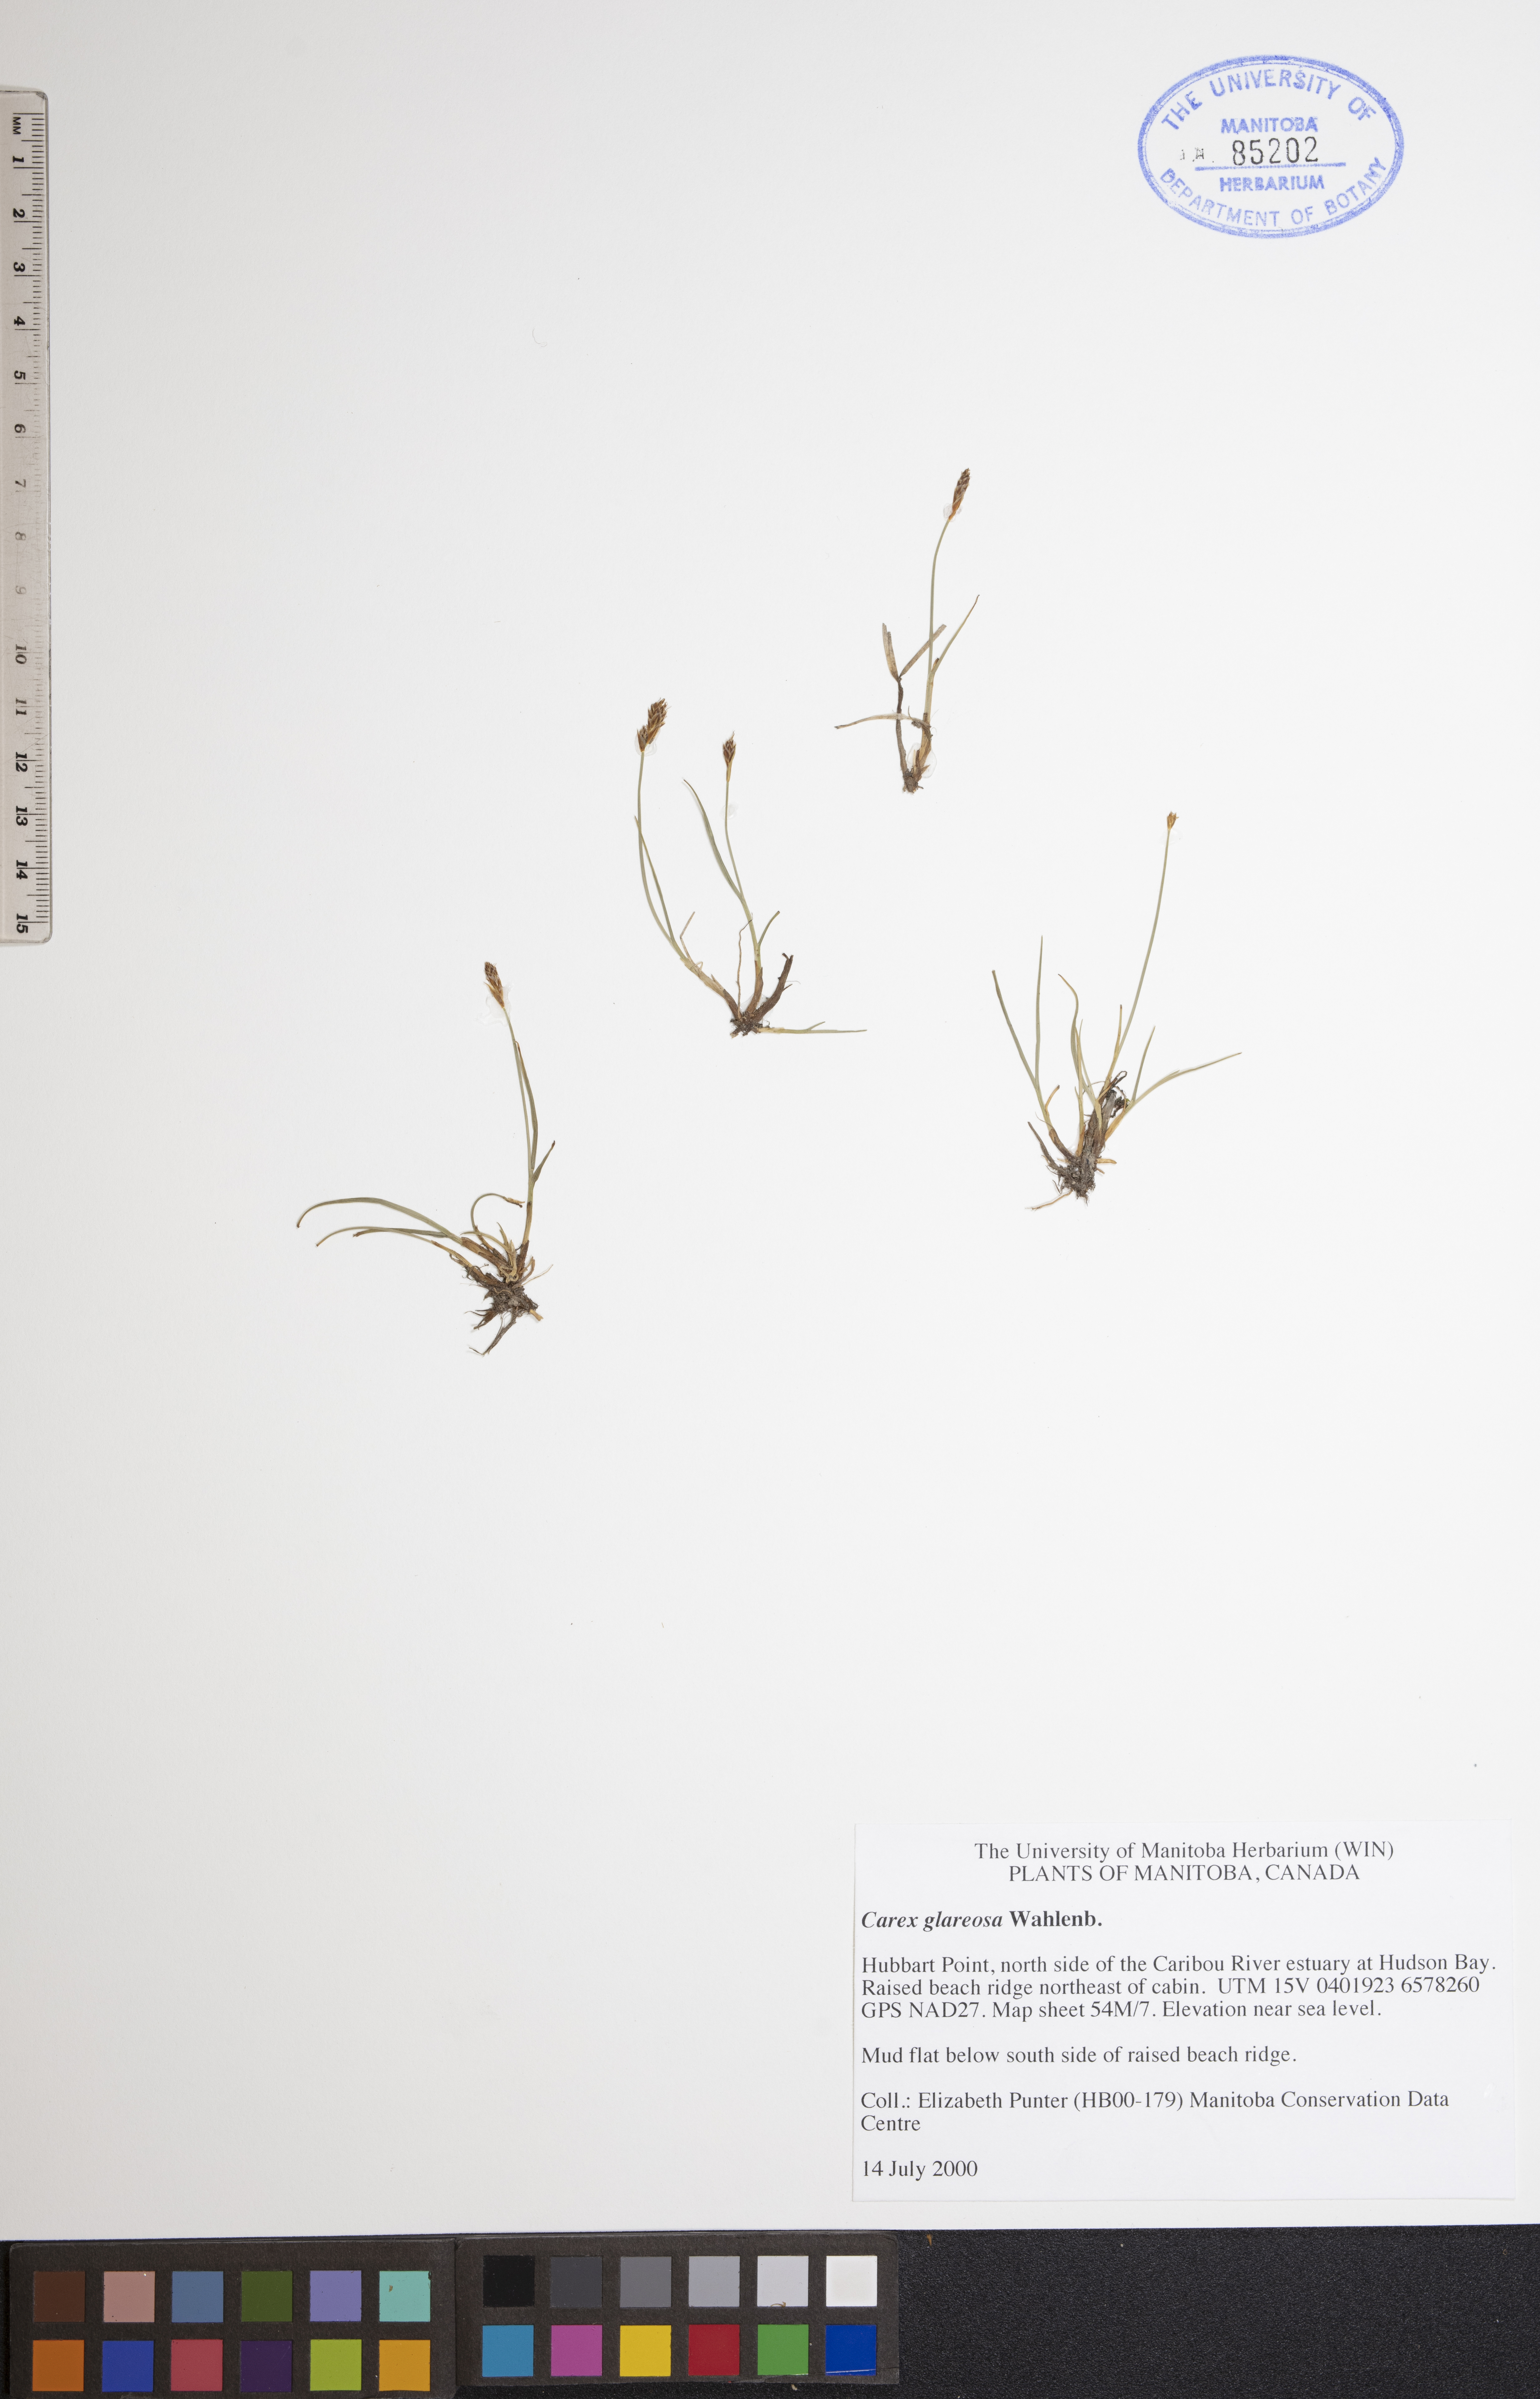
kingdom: Plantae
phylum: Tracheophyta
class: Liliopsida
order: Poales
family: Cyperaceae
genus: Carex
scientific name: Carex glareosa
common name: Clustered sedge
